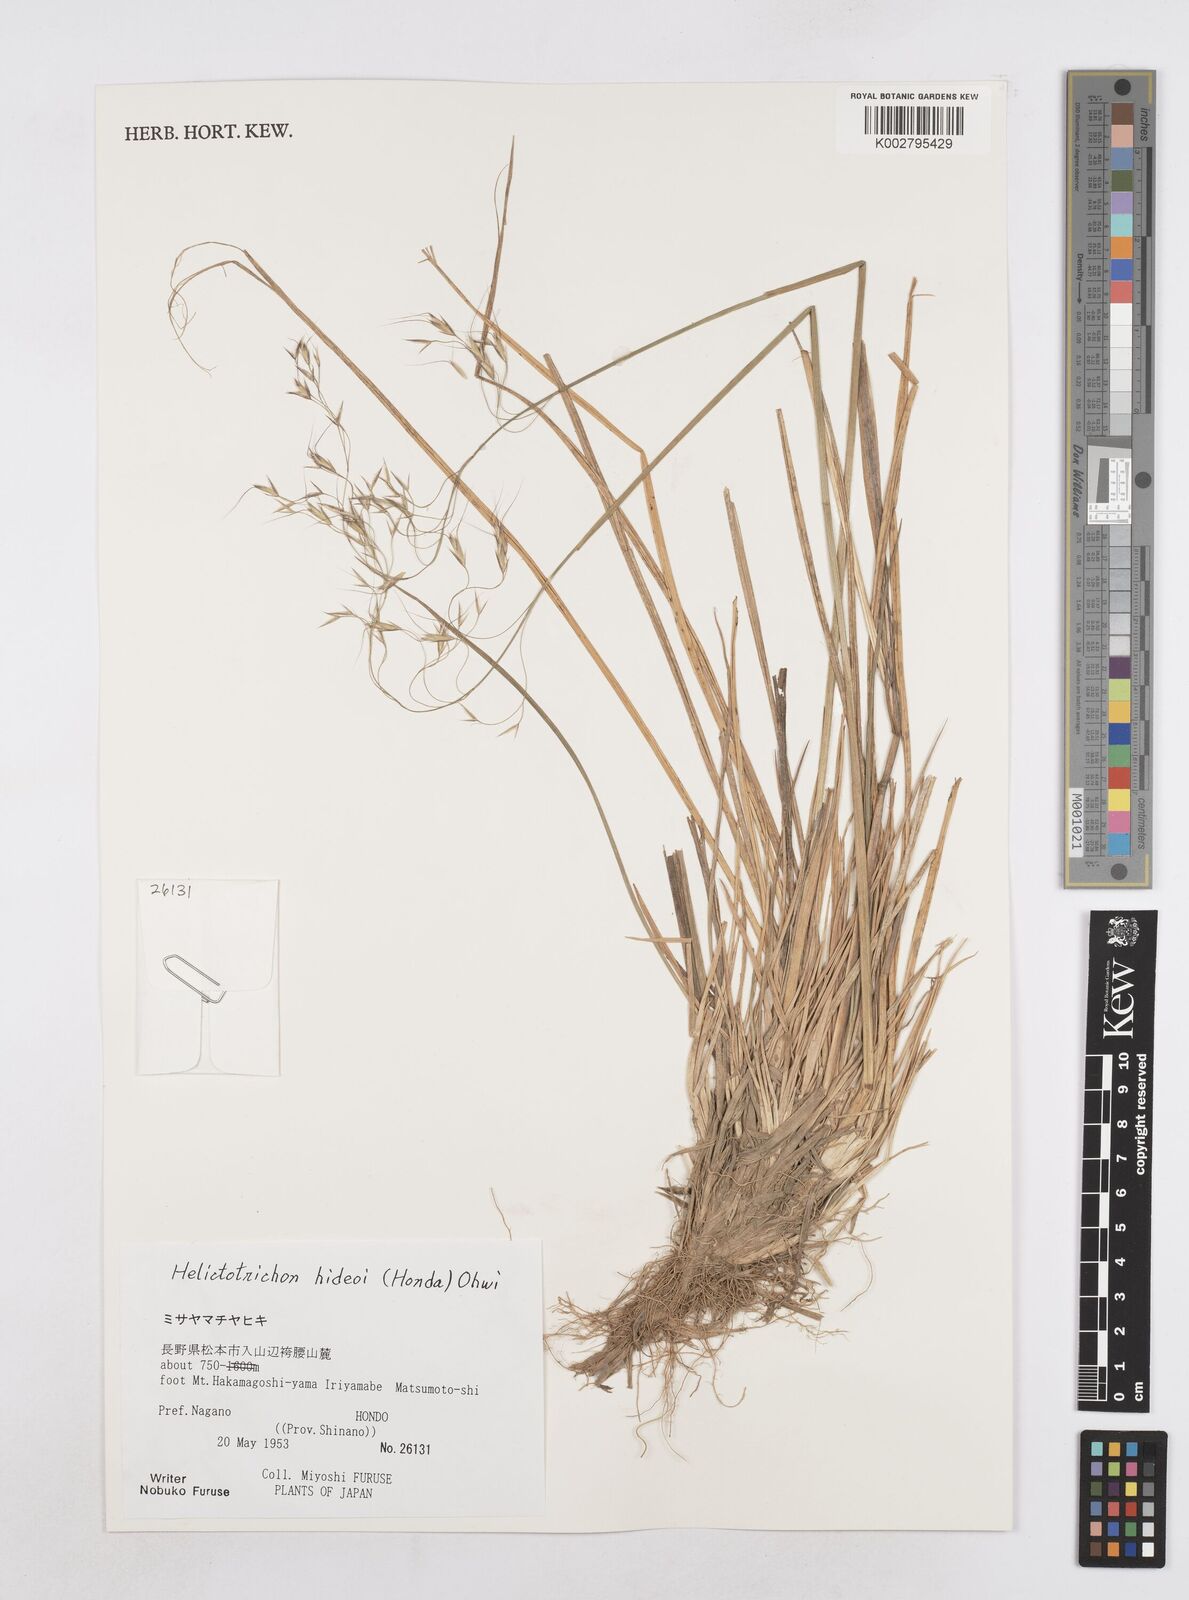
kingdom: Plantae
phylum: Tracheophyta
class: Liliopsida
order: Poales
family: Poaceae
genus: Helictotrichon
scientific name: Helictotrichon hideoi
